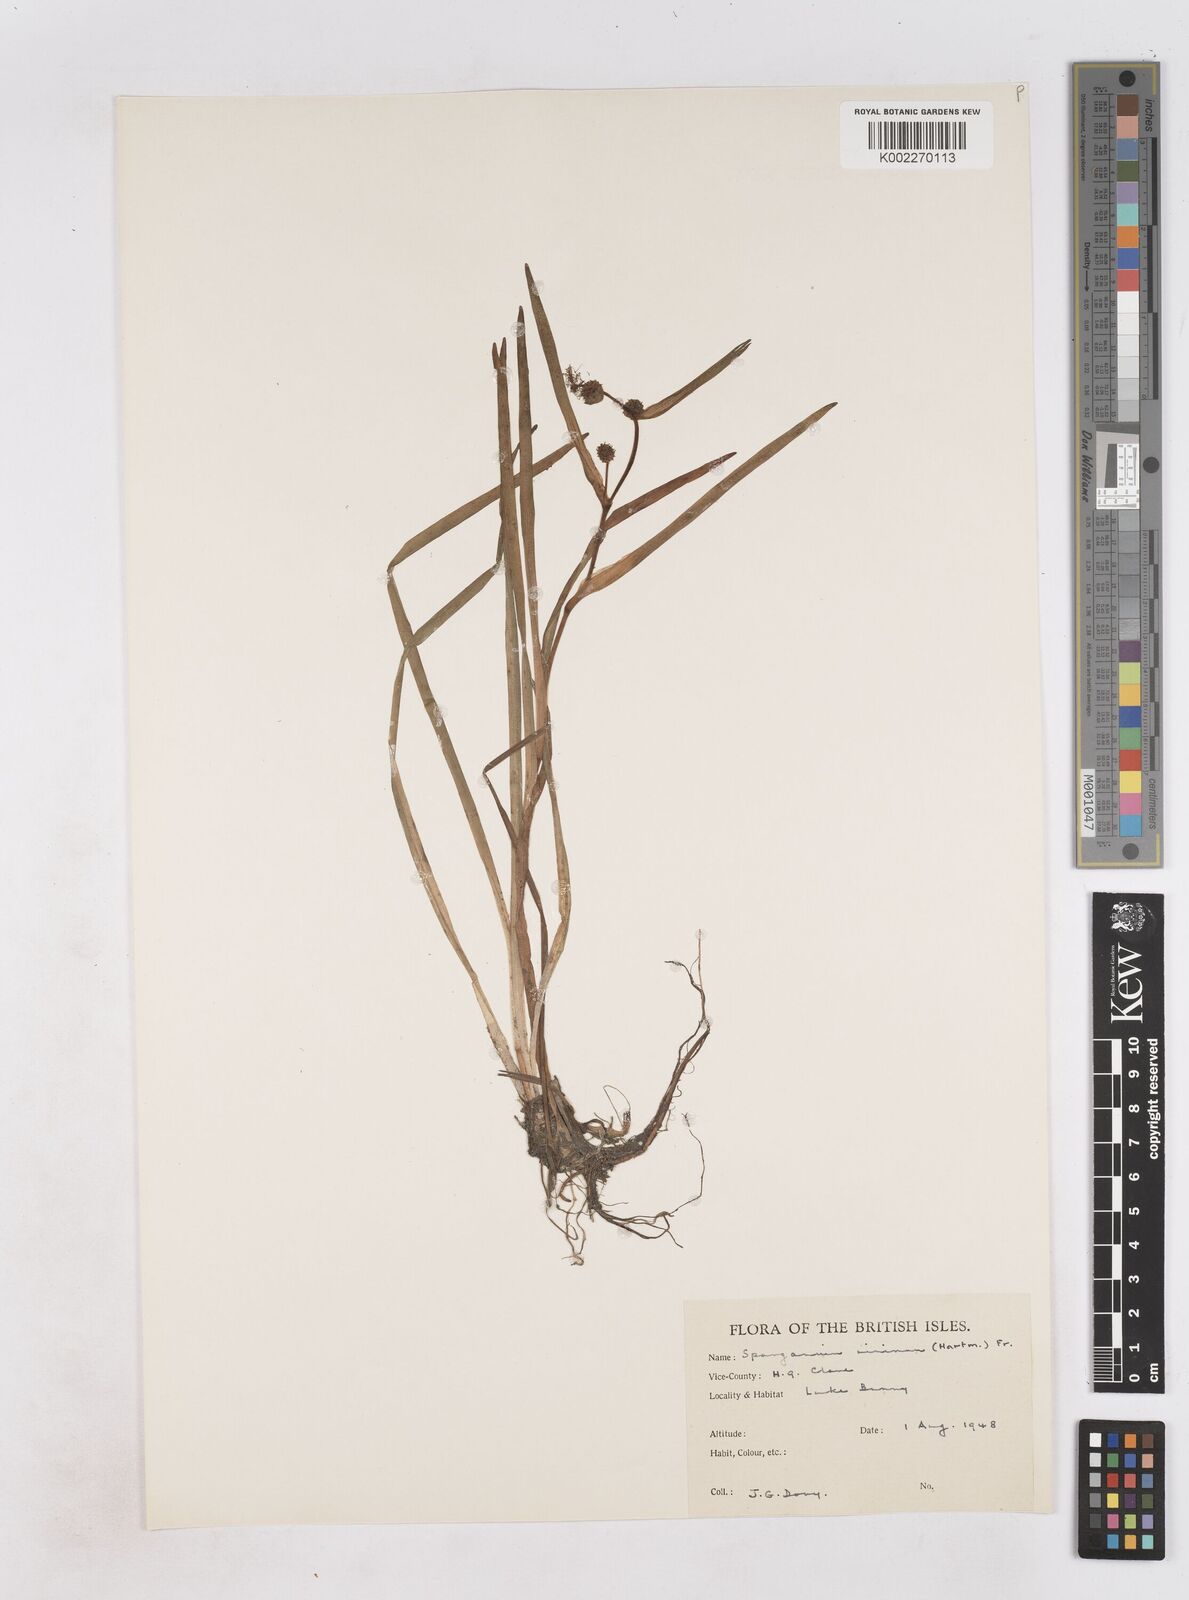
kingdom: Plantae
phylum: Tracheophyta
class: Liliopsida
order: Poales
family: Typhaceae
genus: Sparganium
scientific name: Sparganium natans
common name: Least bur-reed
